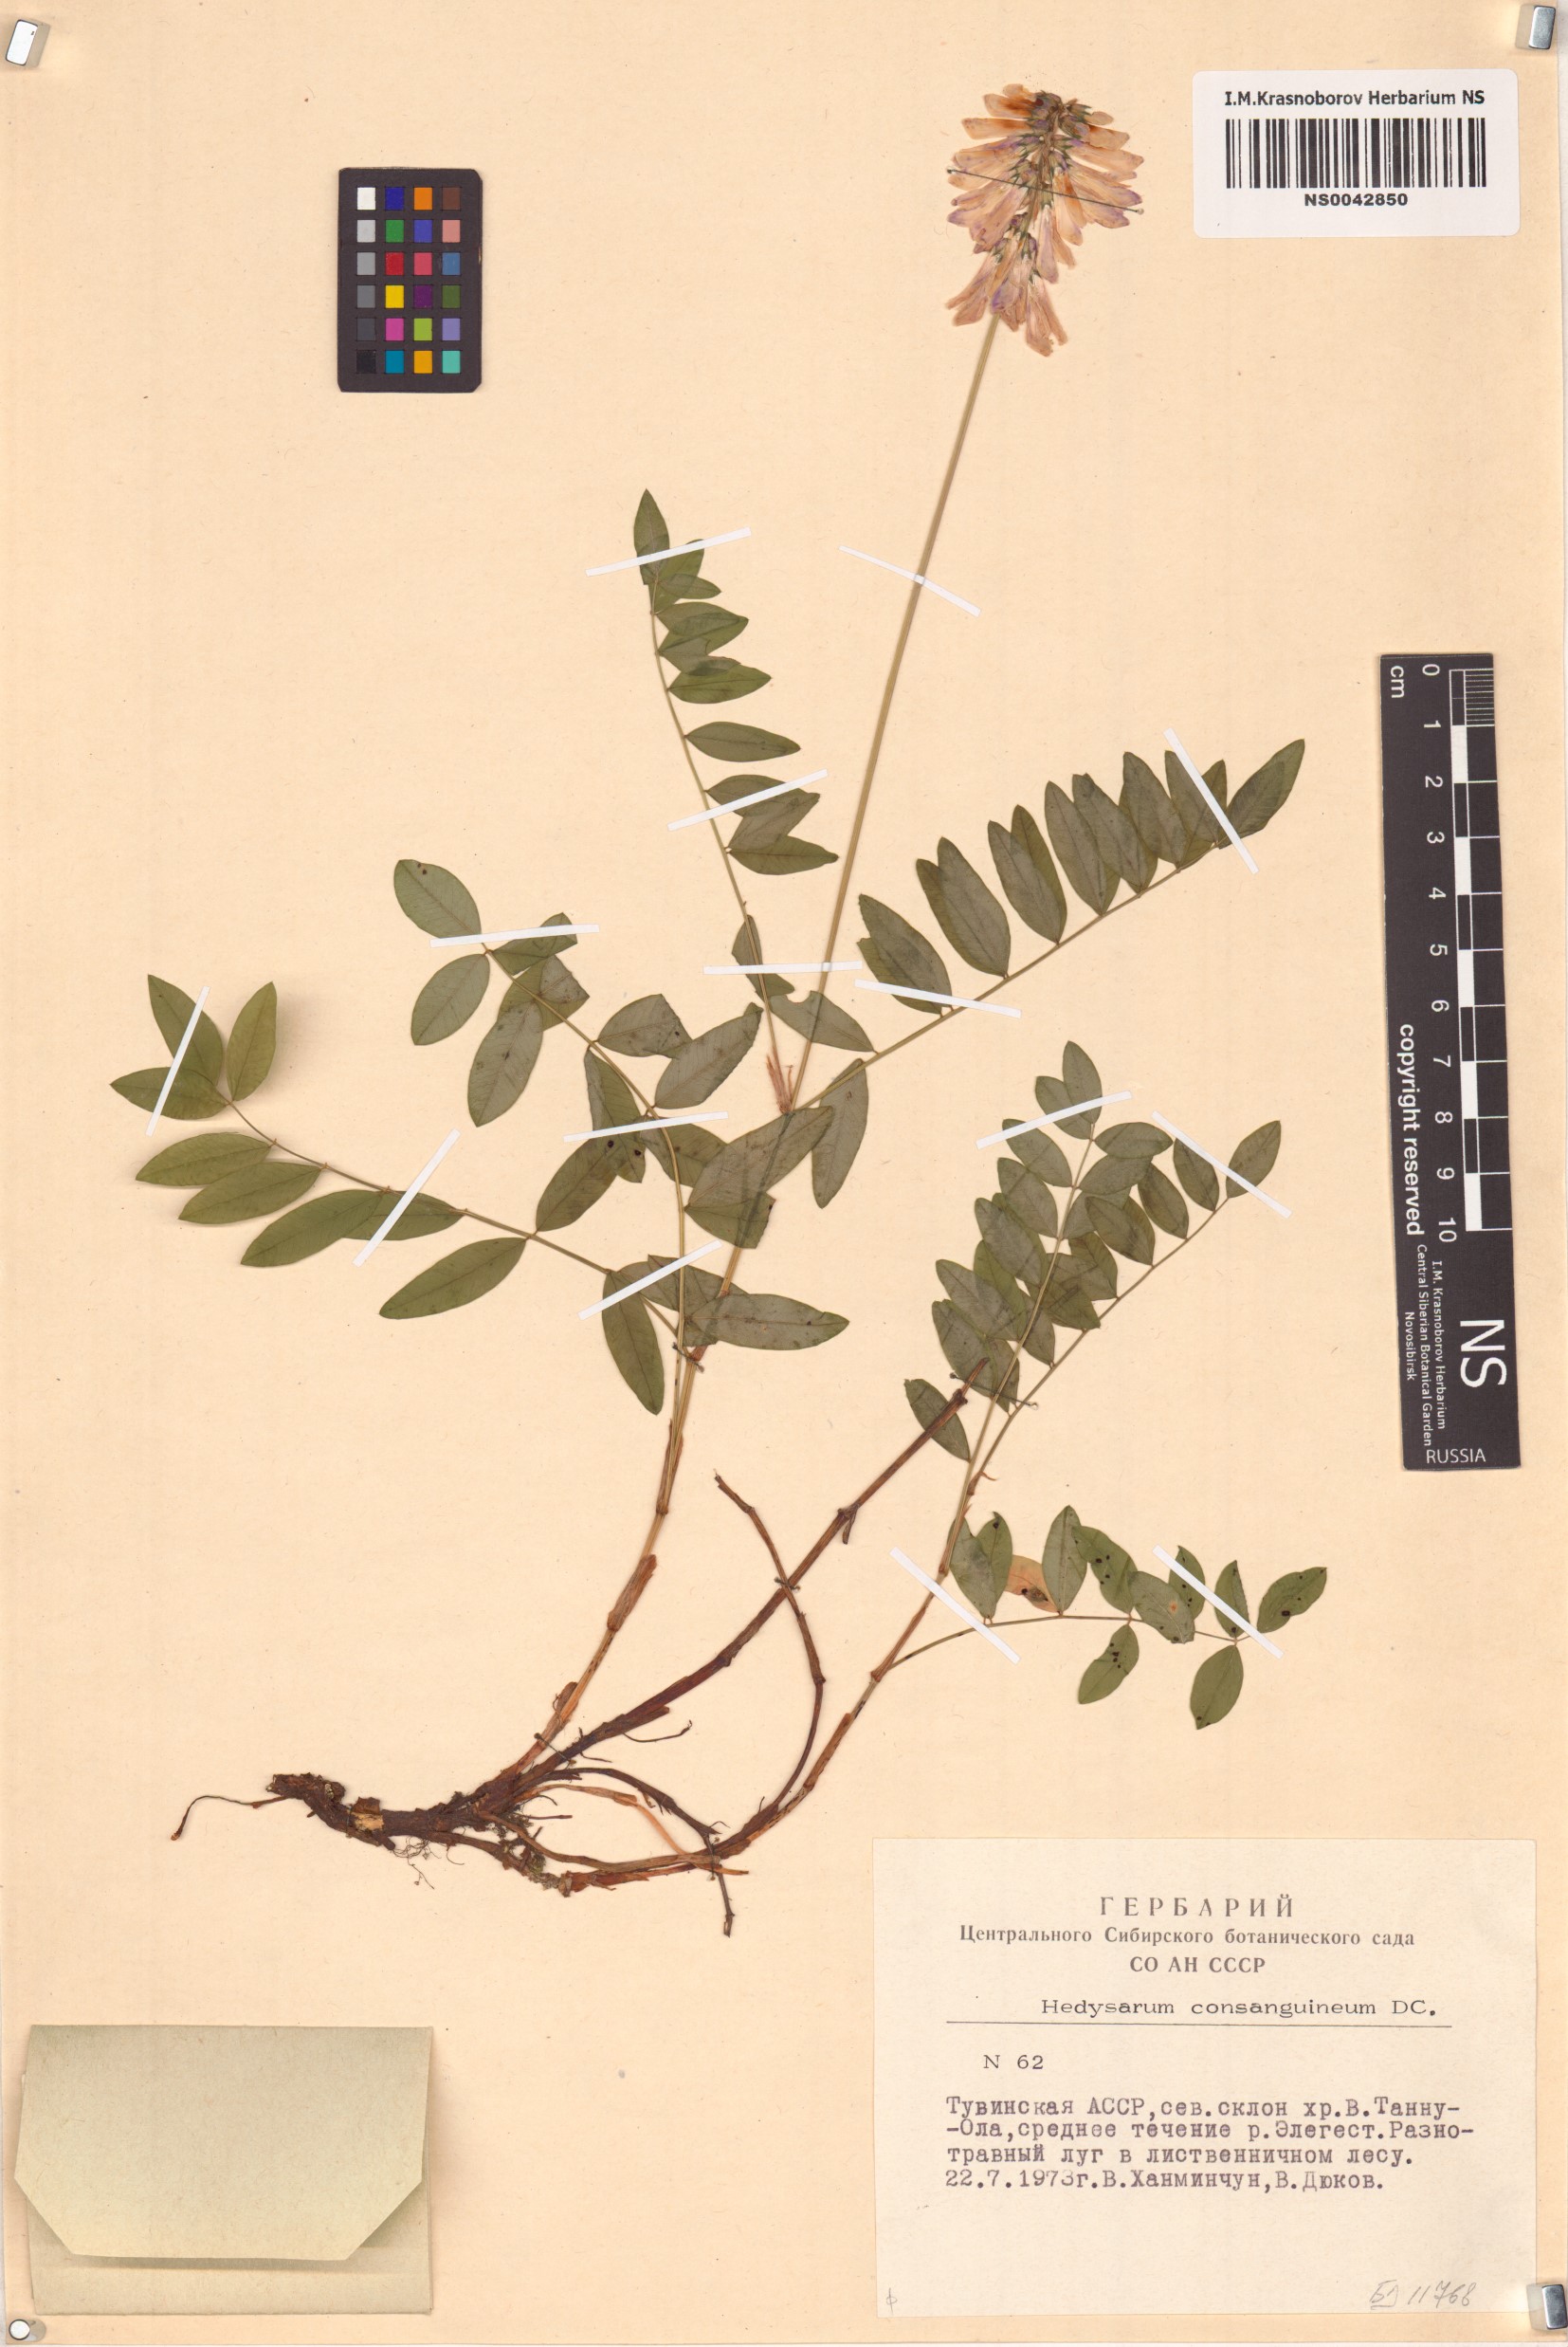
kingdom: Plantae
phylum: Tracheophyta
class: Magnoliopsida
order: Fabales
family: Fabaceae
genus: Hedysarum
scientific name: Hedysarum consanguineum
